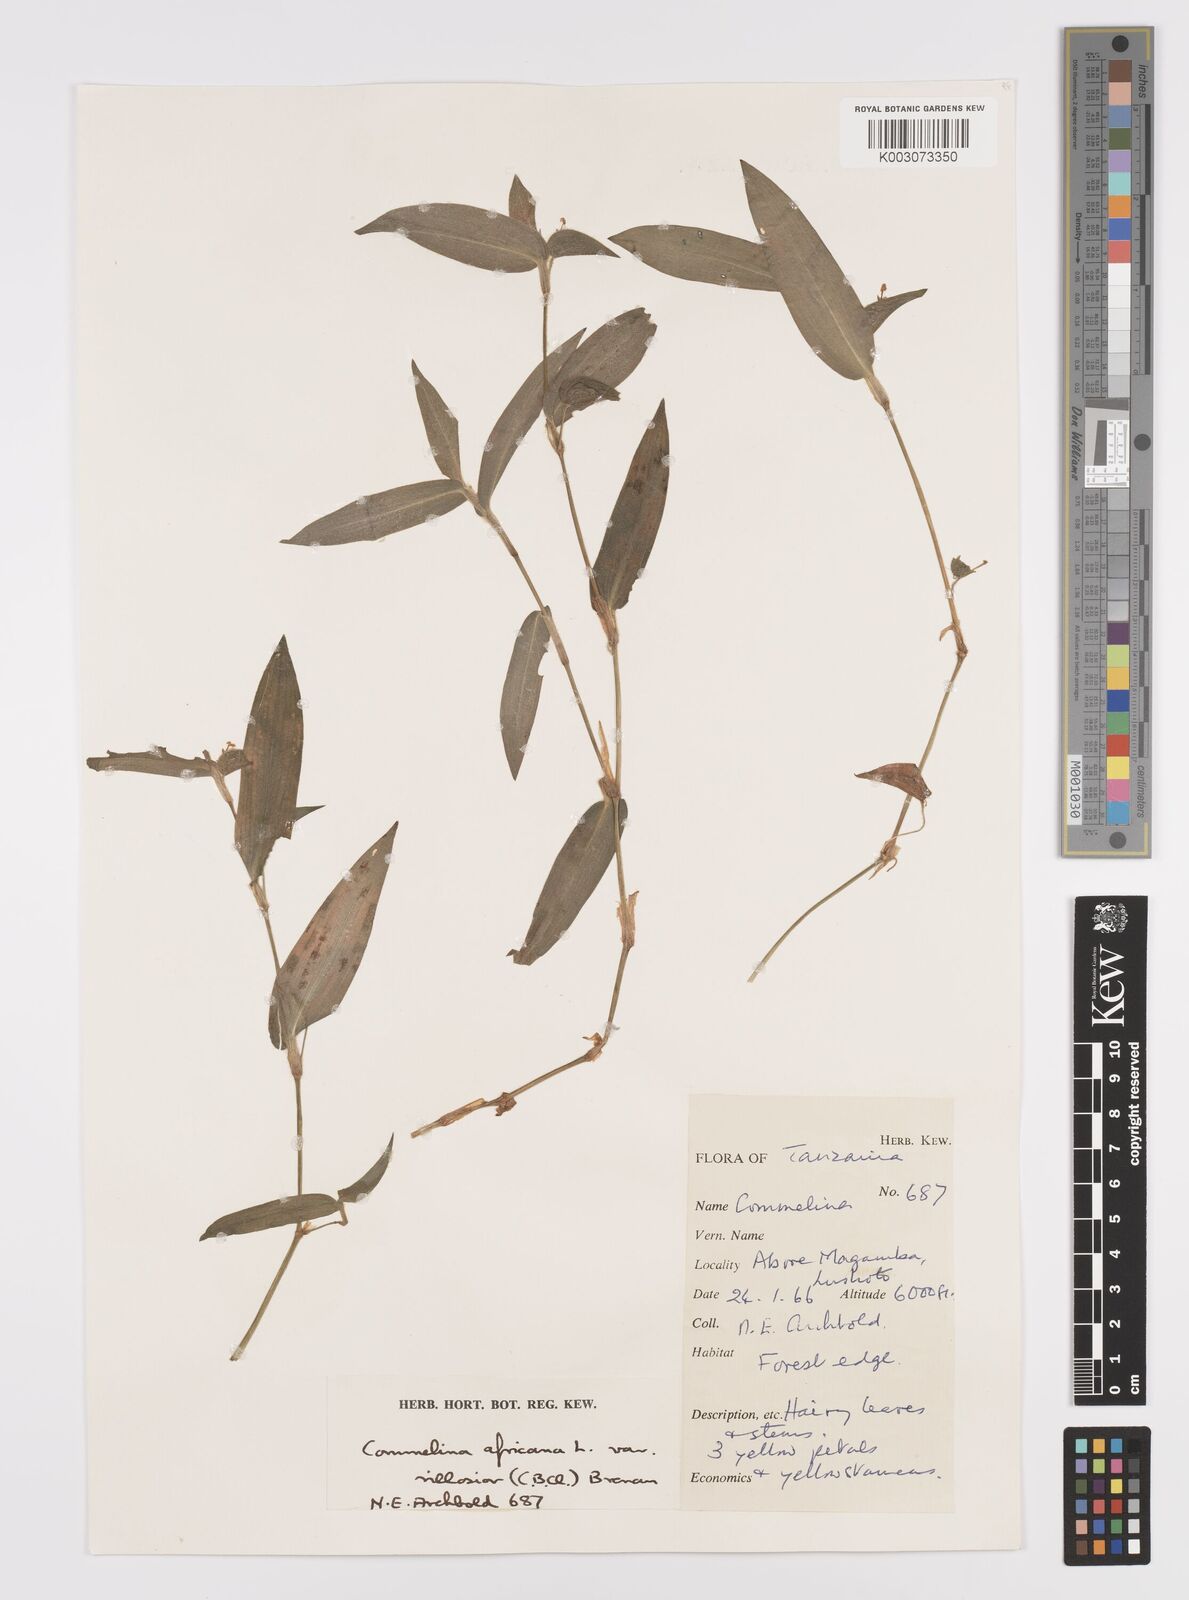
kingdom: Plantae
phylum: Tracheophyta
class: Liliopsida
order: Commelinales
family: Commelinaceae
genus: Commelina
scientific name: Commelina africana
